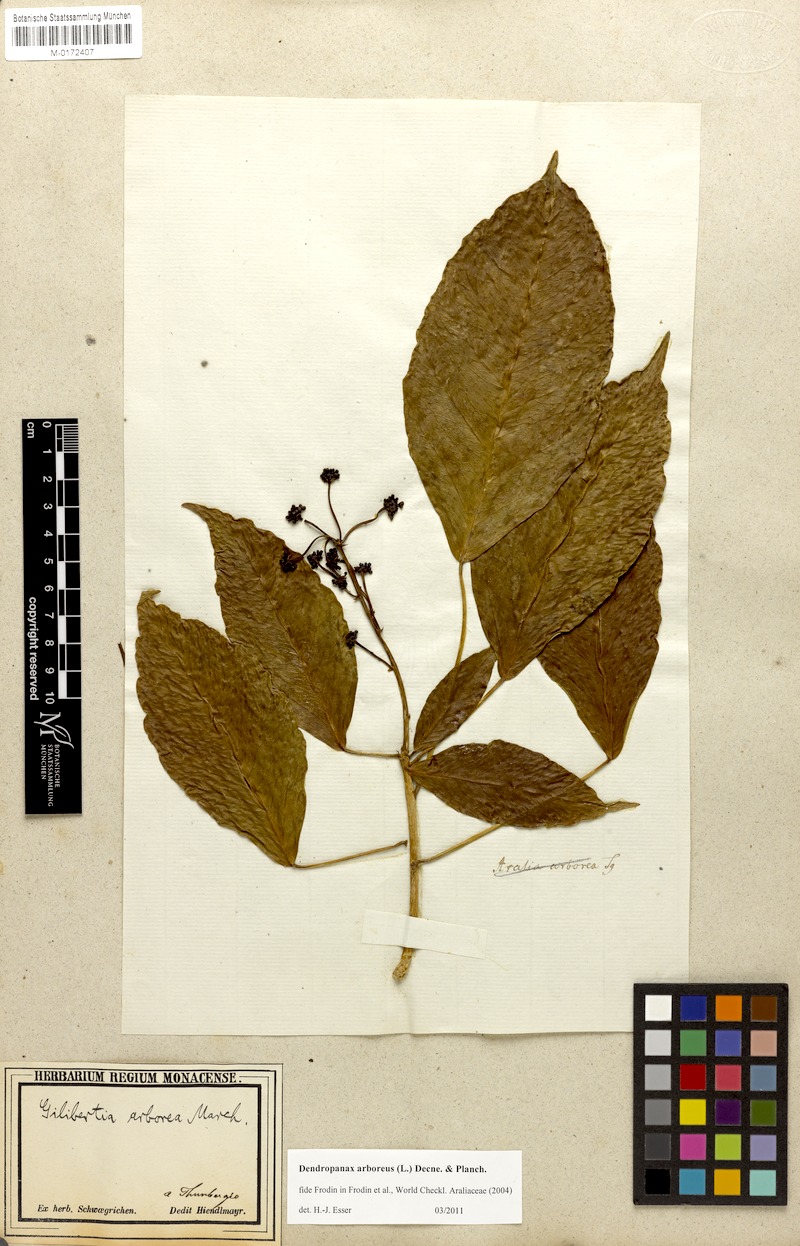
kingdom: Plantae
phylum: Tracheophyta
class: Magnoliopsida
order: Apiales
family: Araliaceae
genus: Dendropanax
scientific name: Dendropanax arboreus
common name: Potato-wood
